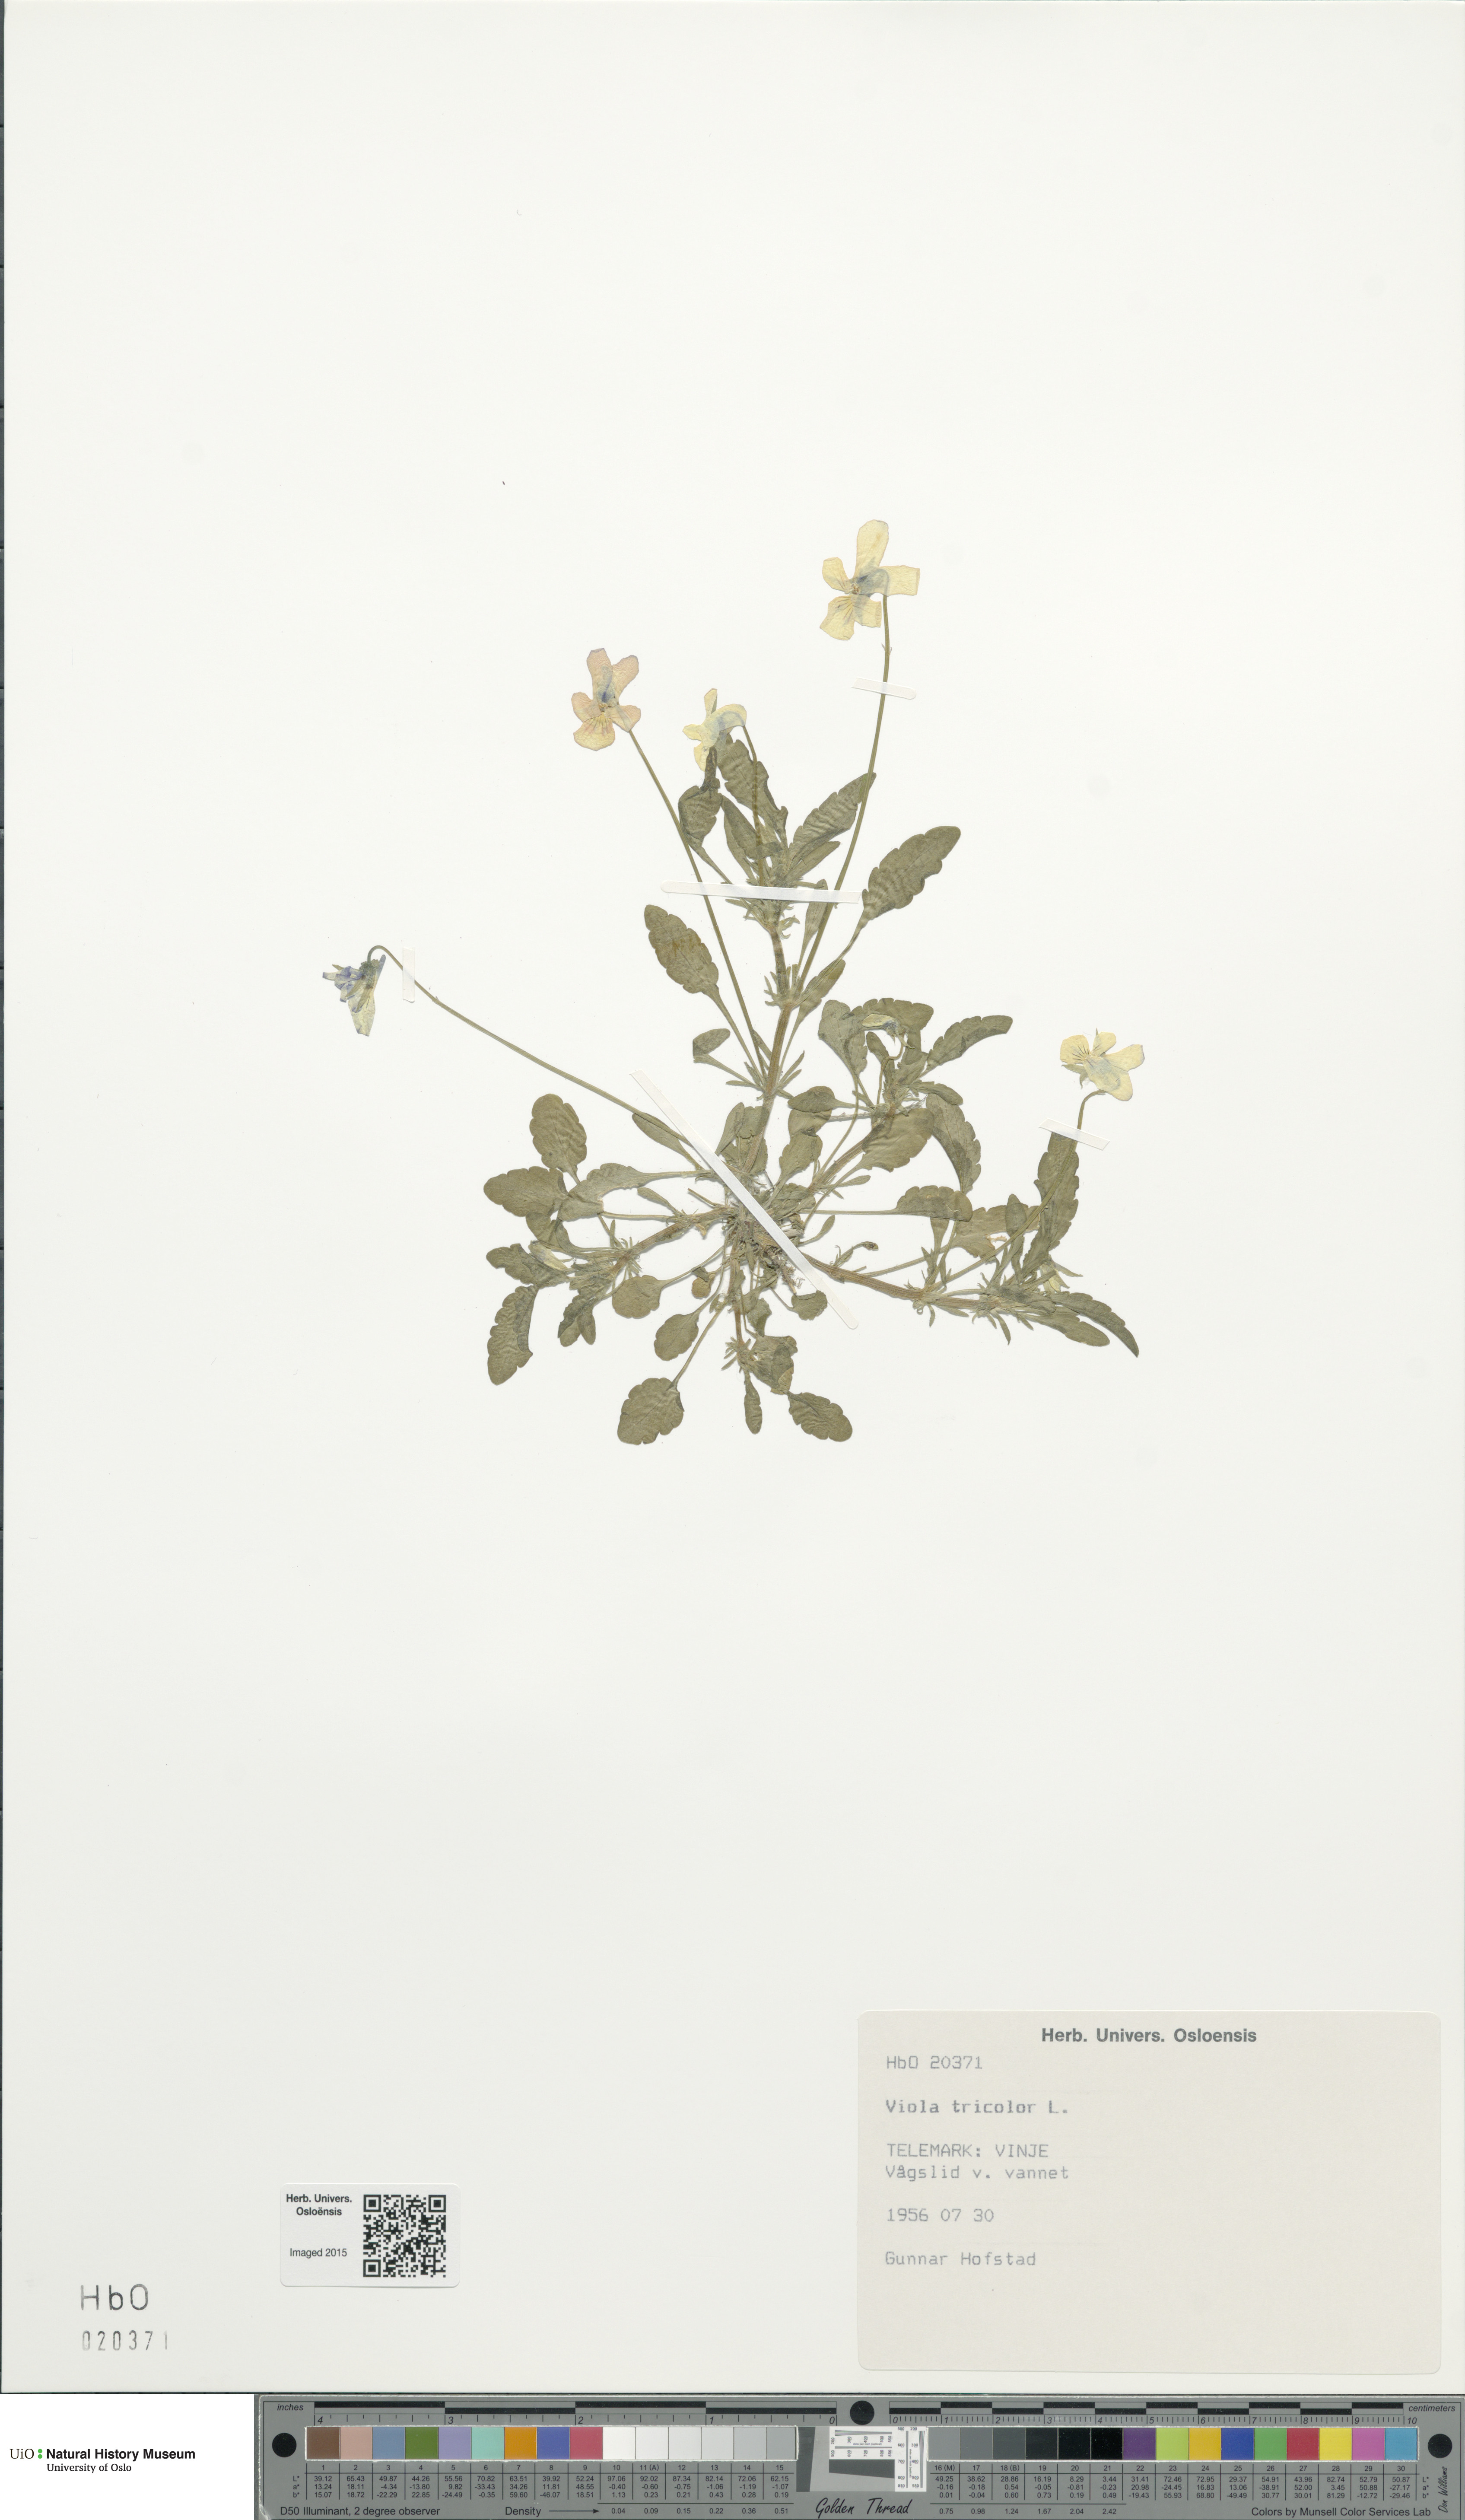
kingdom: Plantae
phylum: Tracheophyta
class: Magnoliopsida
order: Malpighiales
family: Violaceae
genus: Viola
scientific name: Viola tricolor
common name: Pansy
